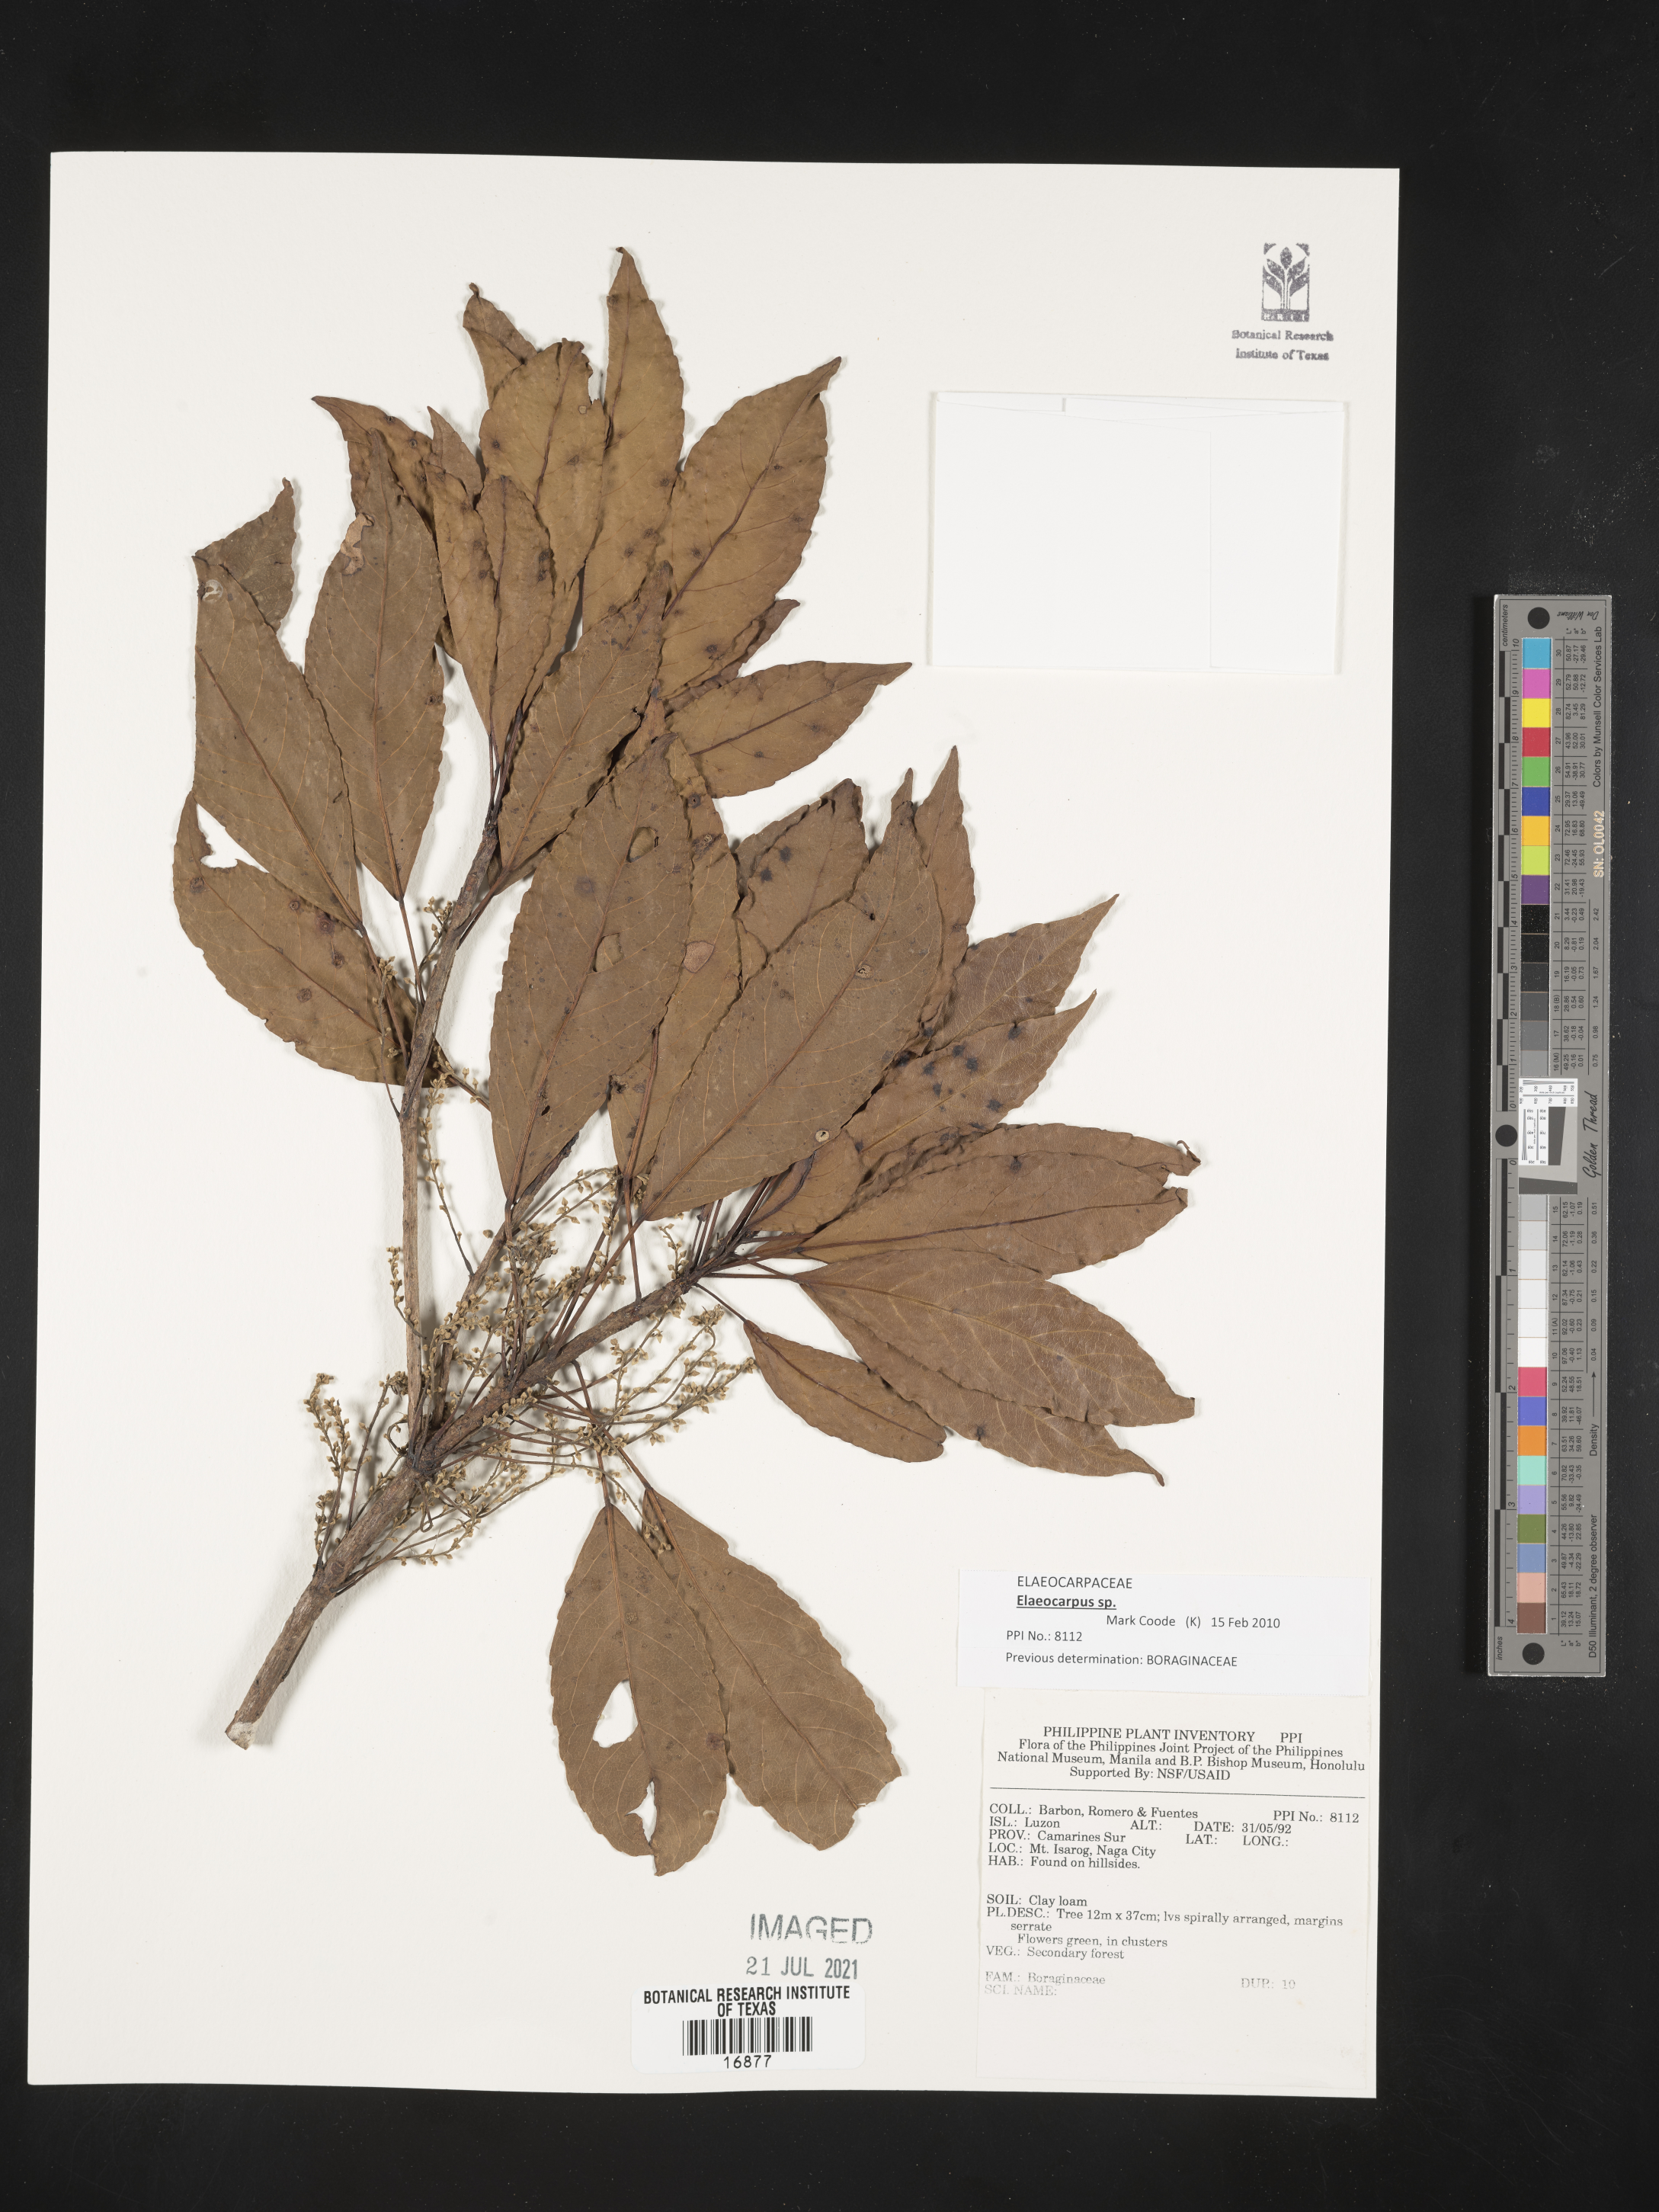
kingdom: Plantae
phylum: Tracheophyta
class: Magnoliopsida
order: Boraginales
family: Boraginaceae
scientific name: Boraginaceae
